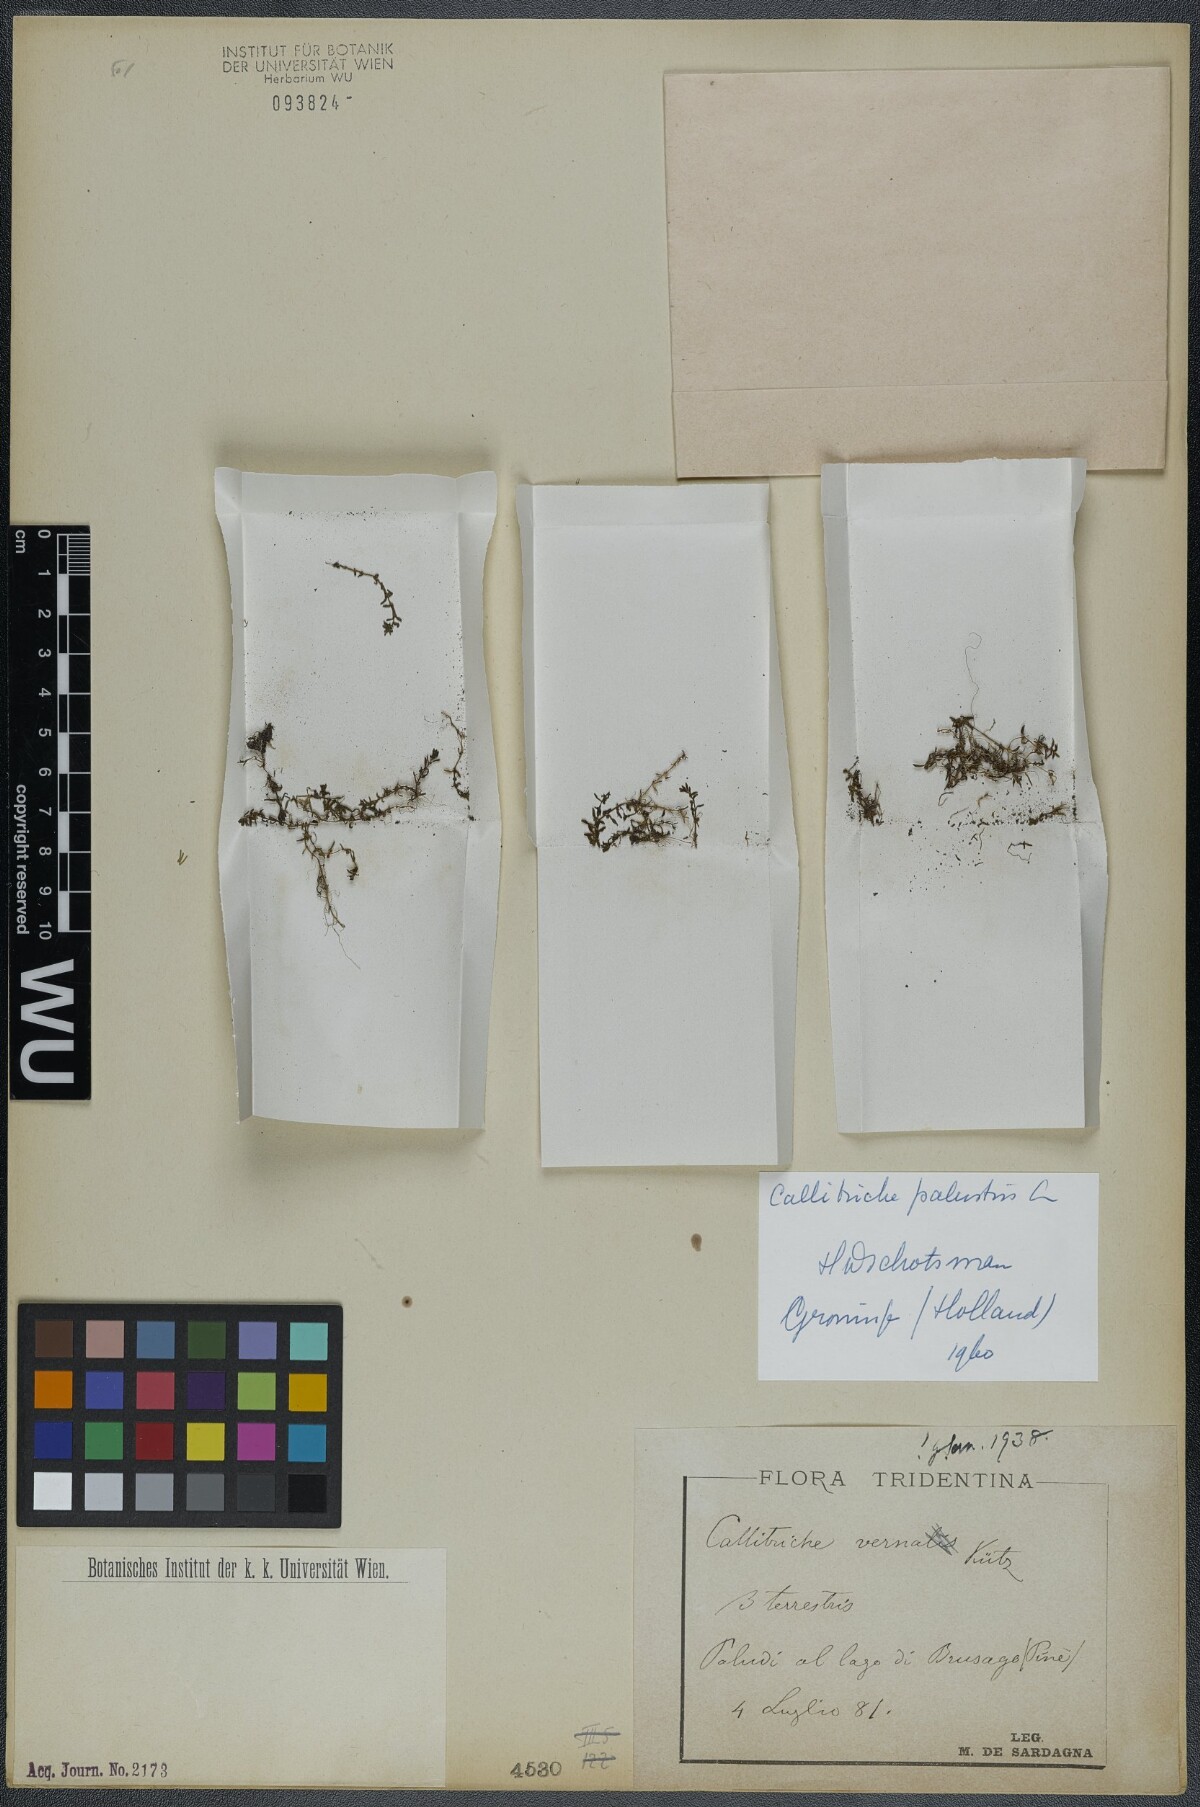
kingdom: Plantae
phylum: Tracheophyta
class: Magnoliopsida
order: Lamiales
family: Plantaginaceae
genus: Callitriche
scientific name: Callitriche palustris
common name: Spring water-starwort
